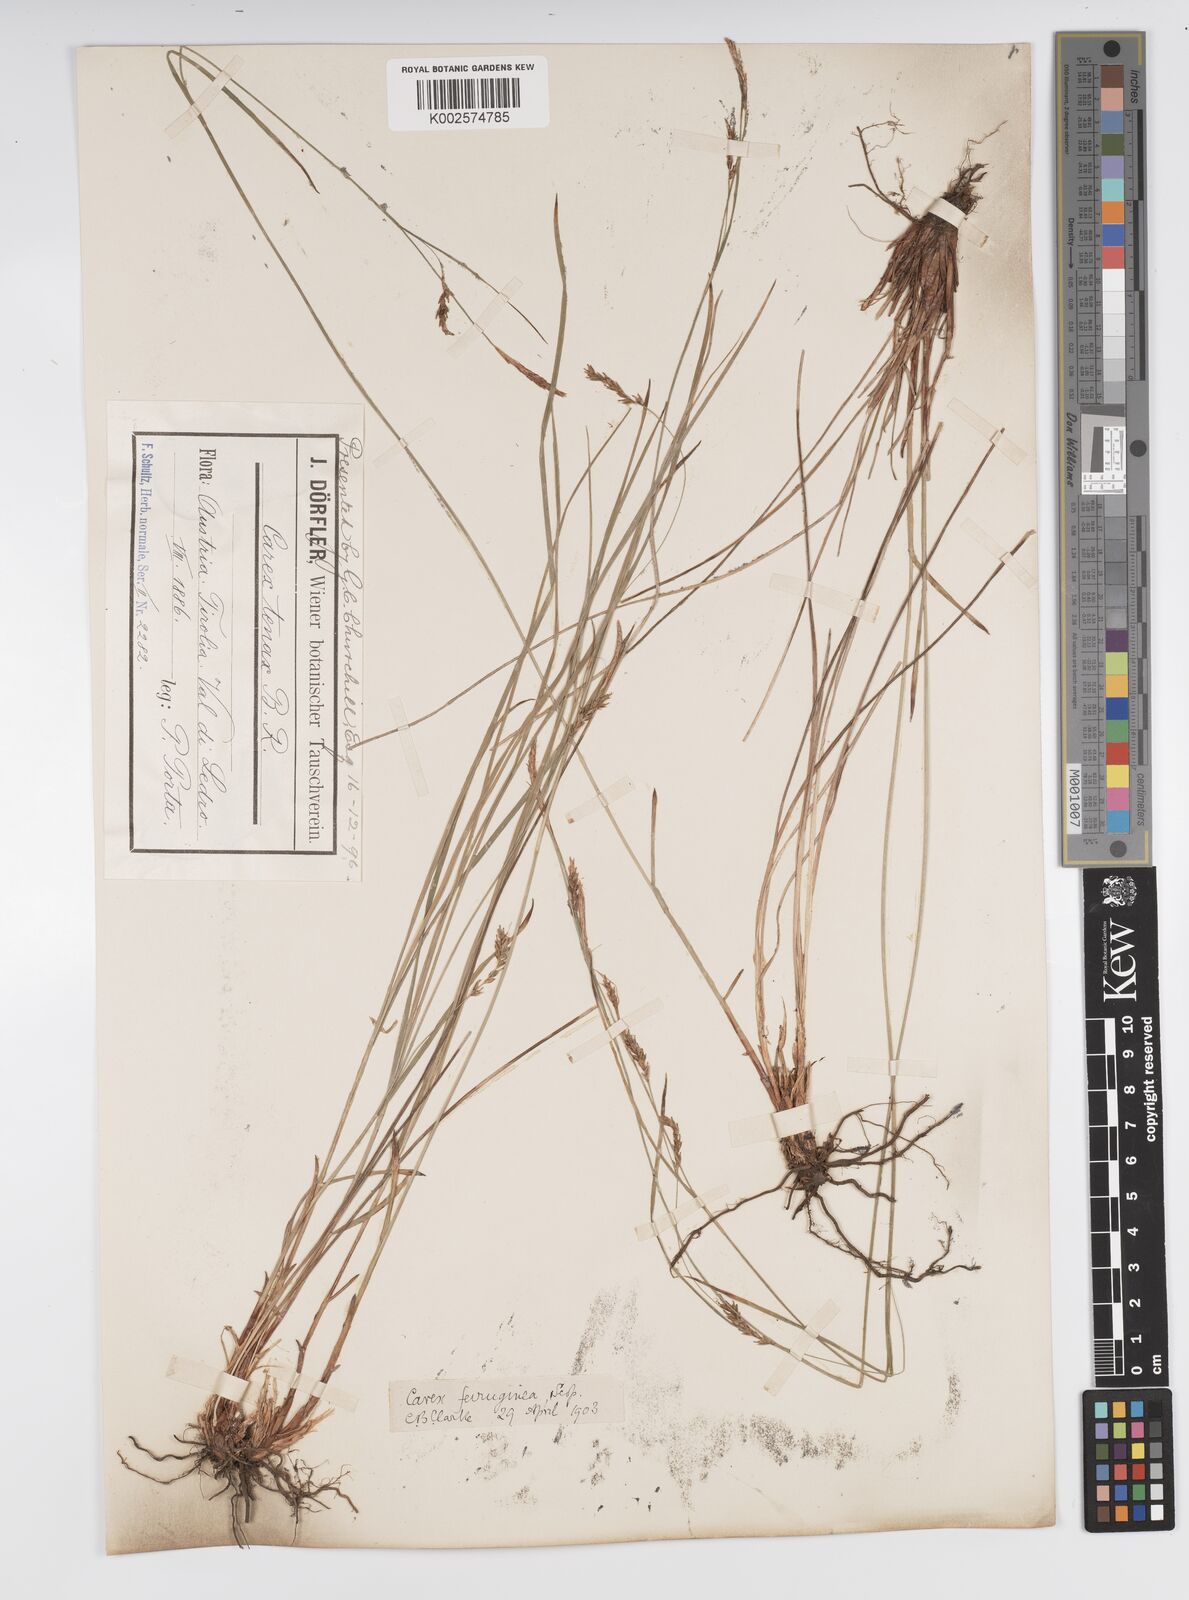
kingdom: Plantae
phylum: Tracheophyta
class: Liliopsida
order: Poales
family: Cyperaceae
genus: Carex
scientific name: Carex austroalpina
